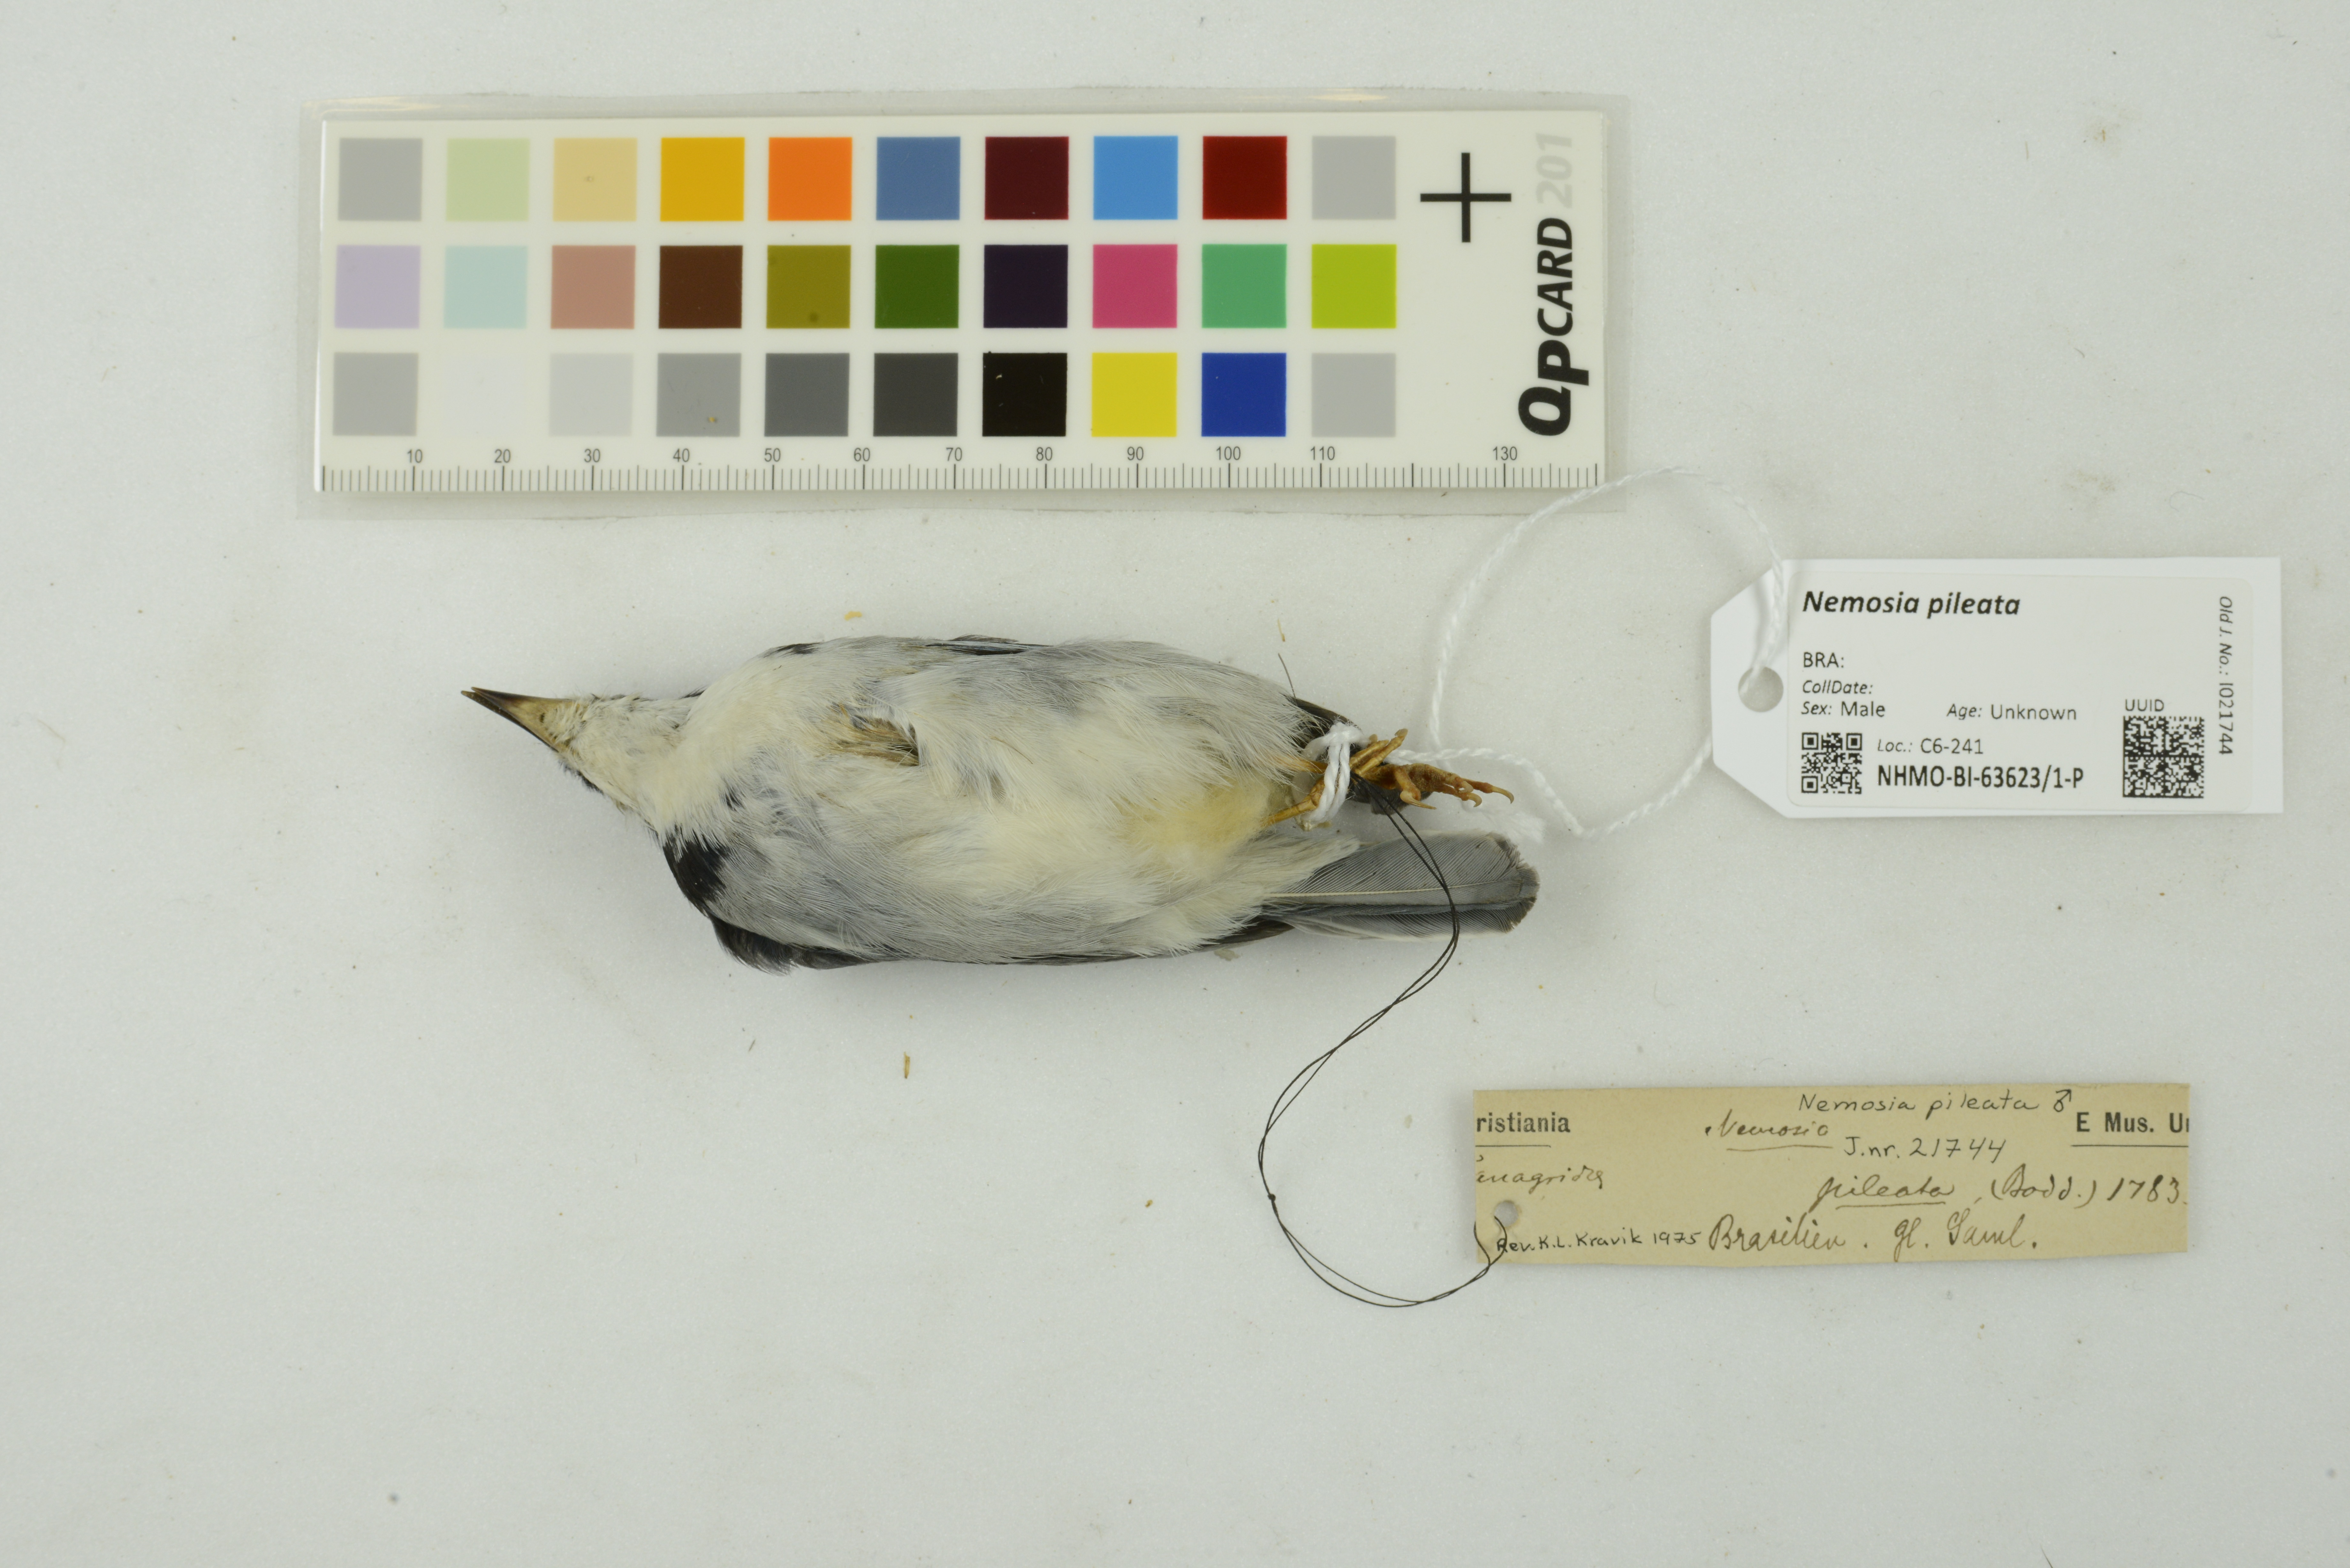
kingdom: Animalia
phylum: Chordata
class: Aves
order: Passeriformes
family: Thraupidae
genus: Nemosia
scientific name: Nemosia pileata
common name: Hooded tanager
